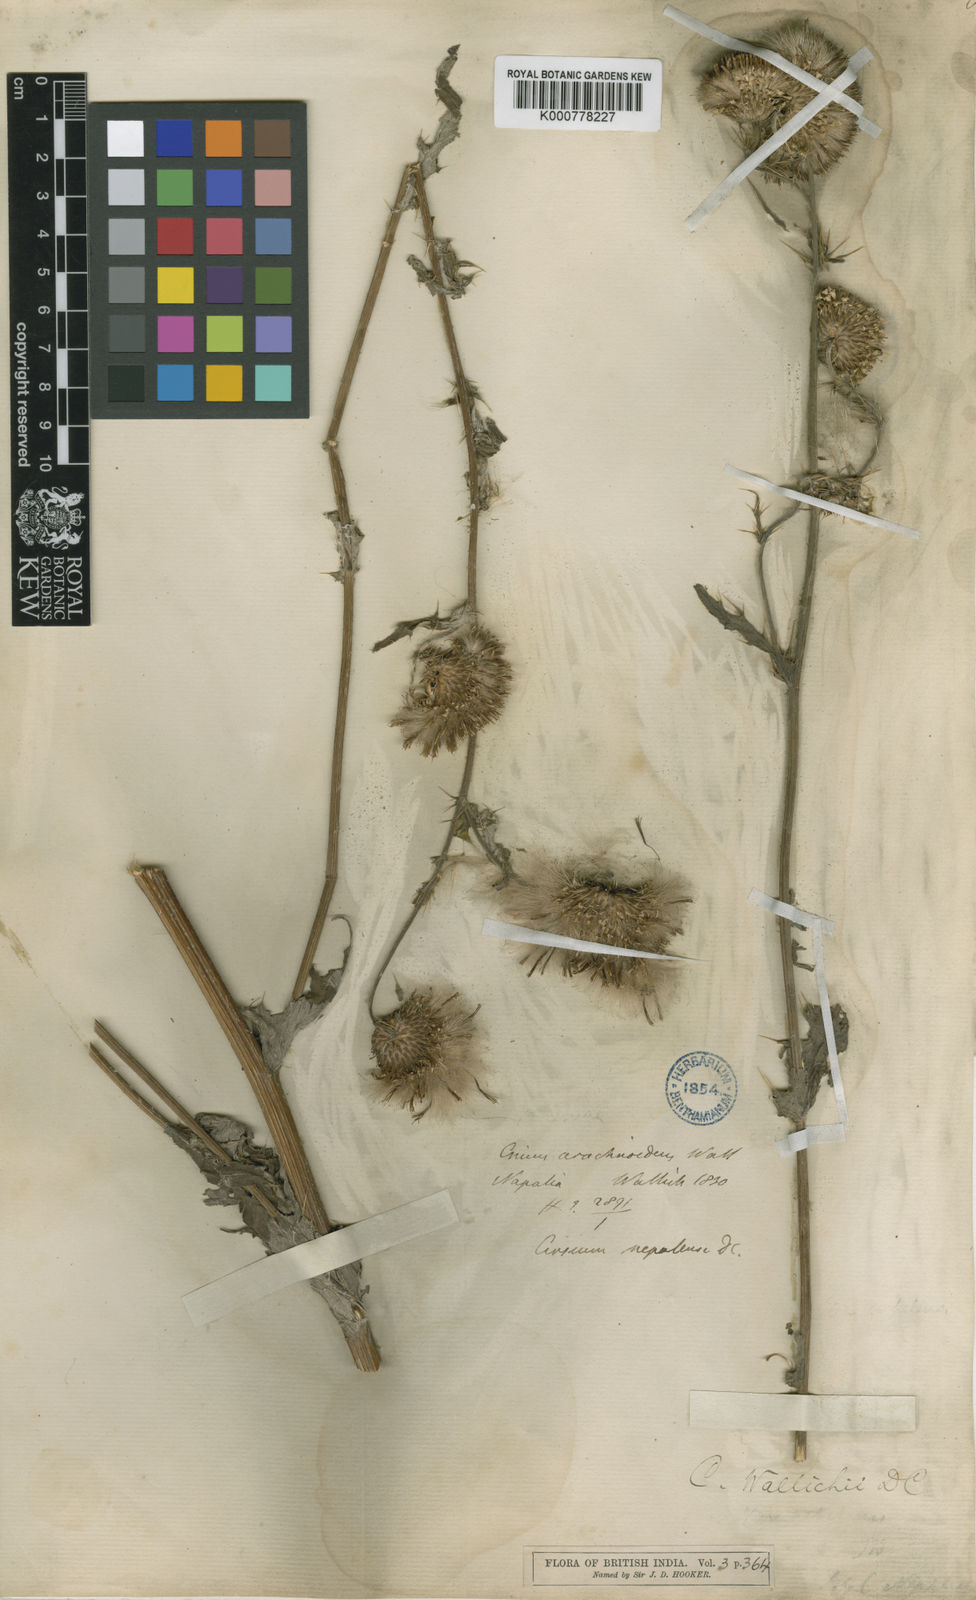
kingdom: Plantae
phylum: Tracheophyta
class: Magnoliopsida
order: Asterales
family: Asteraceae
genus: Cirsium
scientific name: Cirsium wallichii
